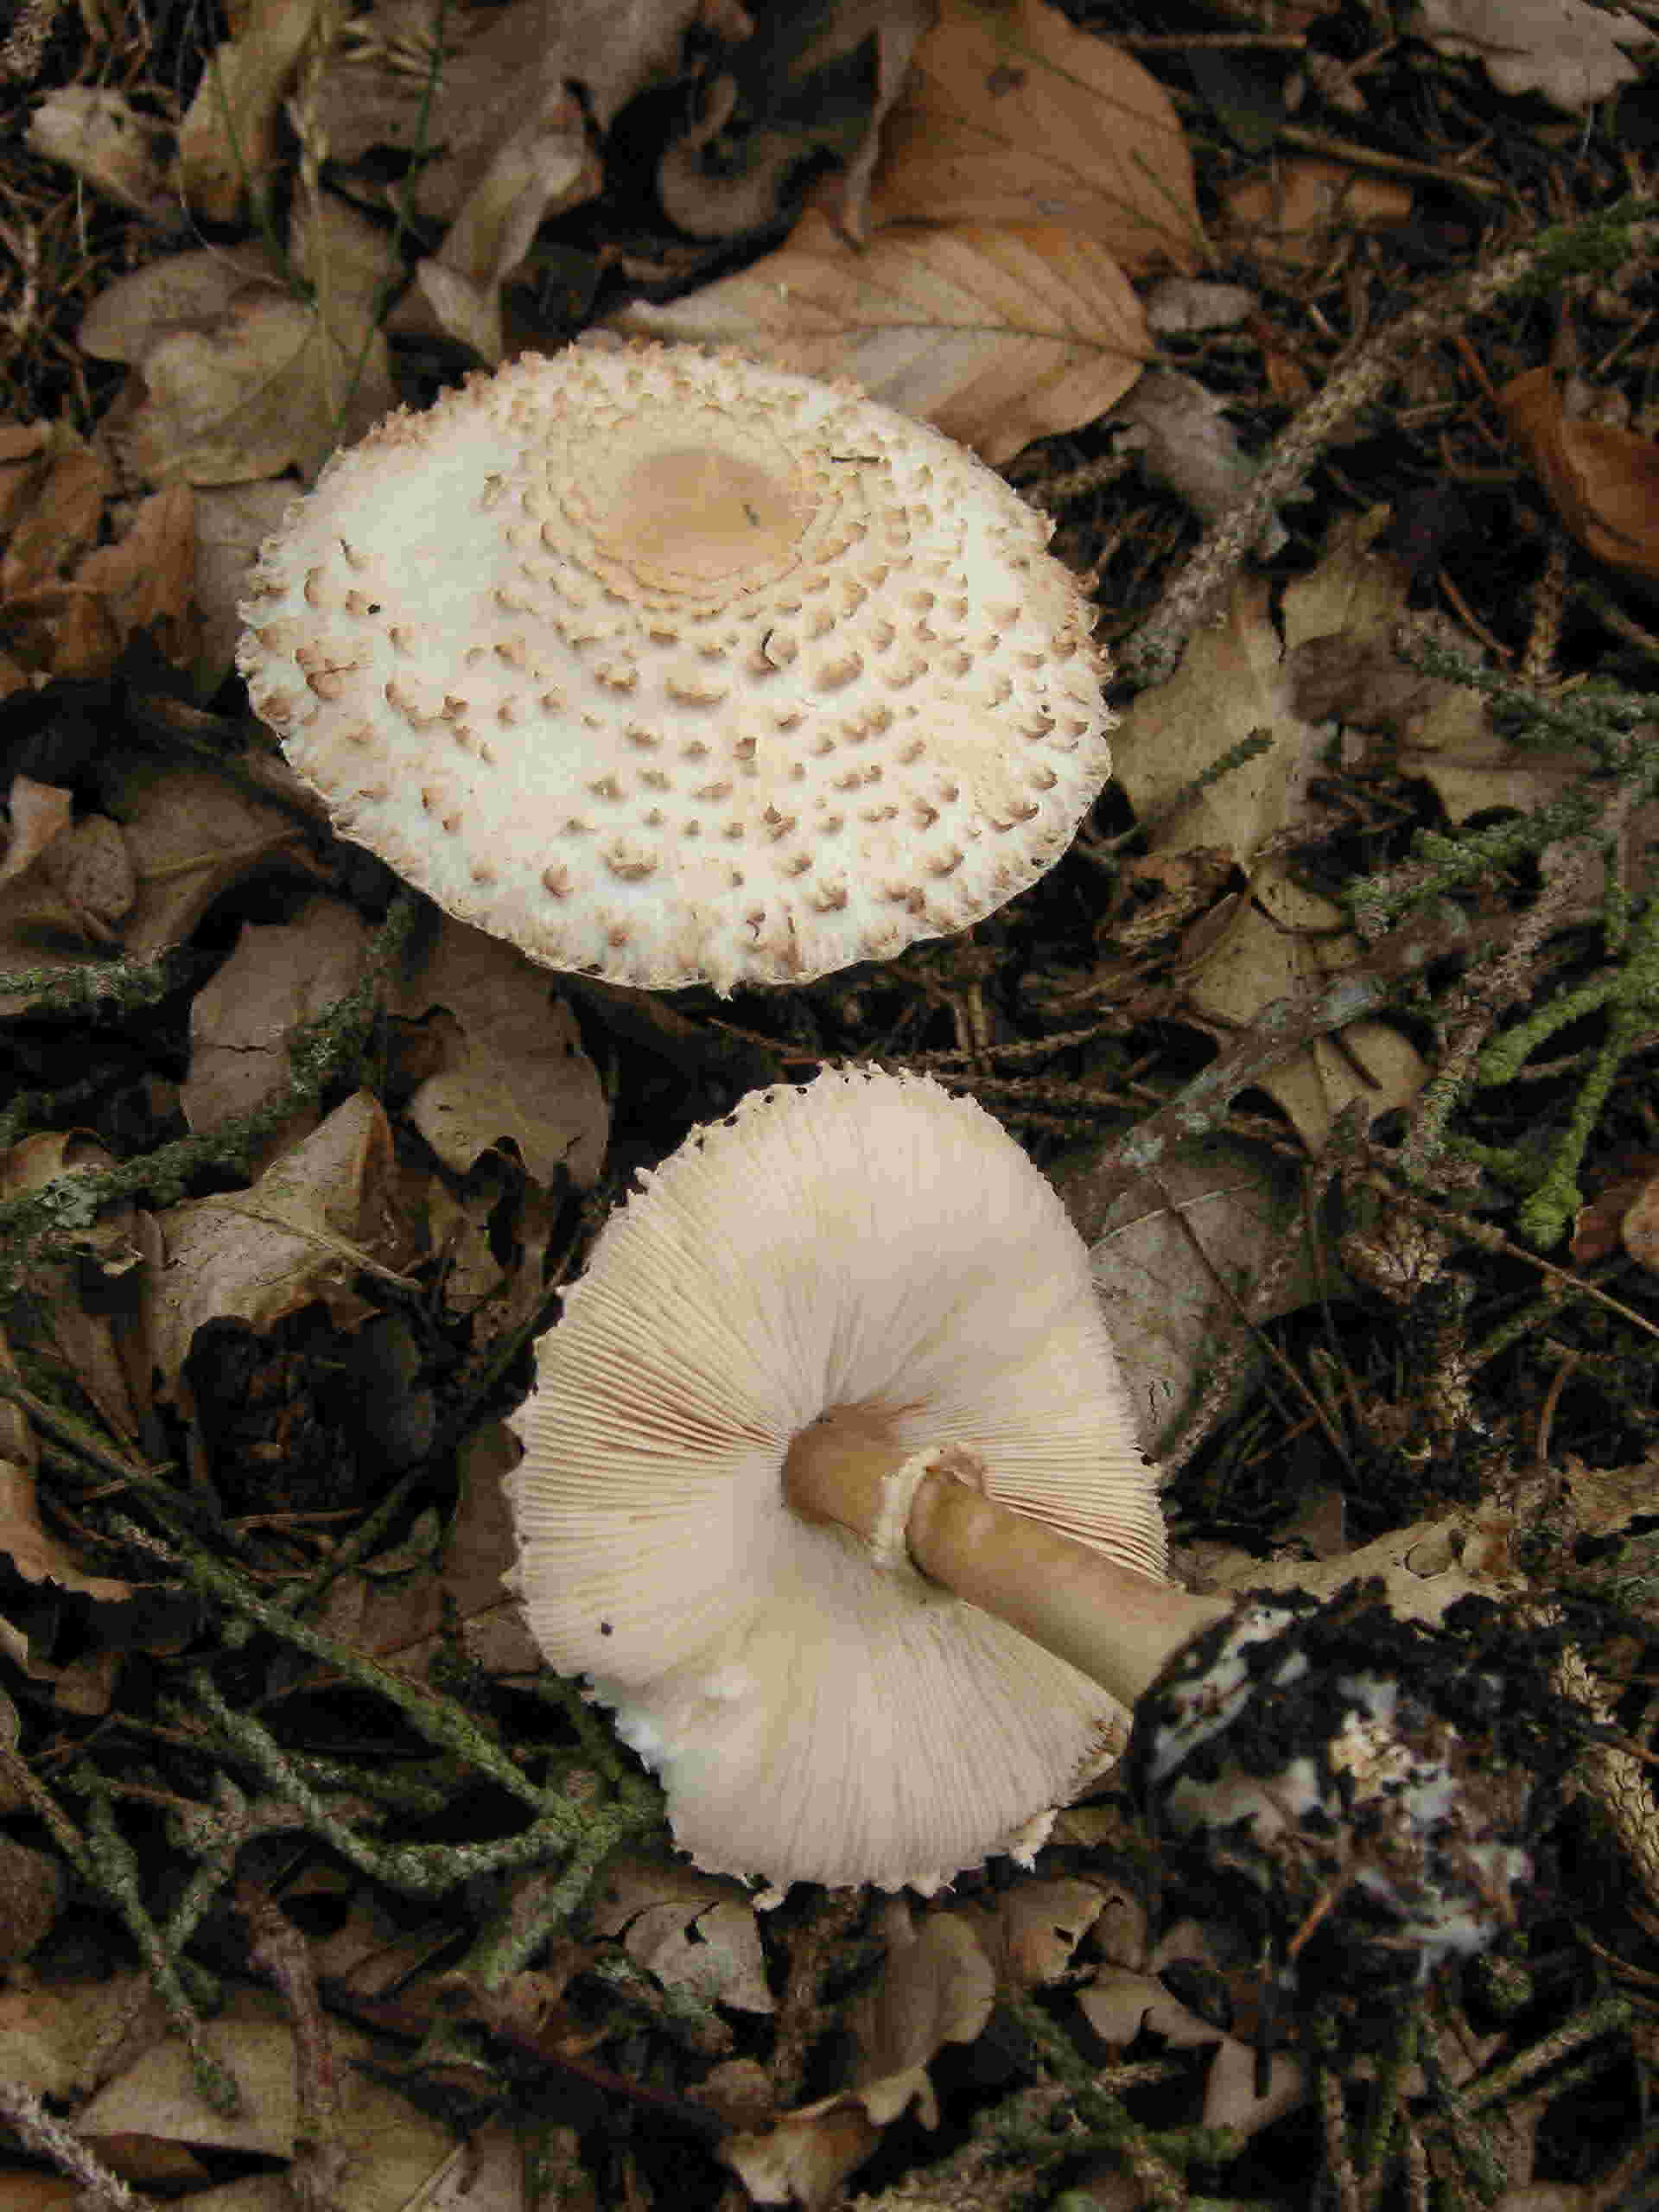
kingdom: Fungi
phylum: Basidiomycota
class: Agaricomycetes
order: Agaricales
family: Agaricaceae
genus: Leucoagaricus
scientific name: Leucoagaricus nympharum
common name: gran-silkehat
